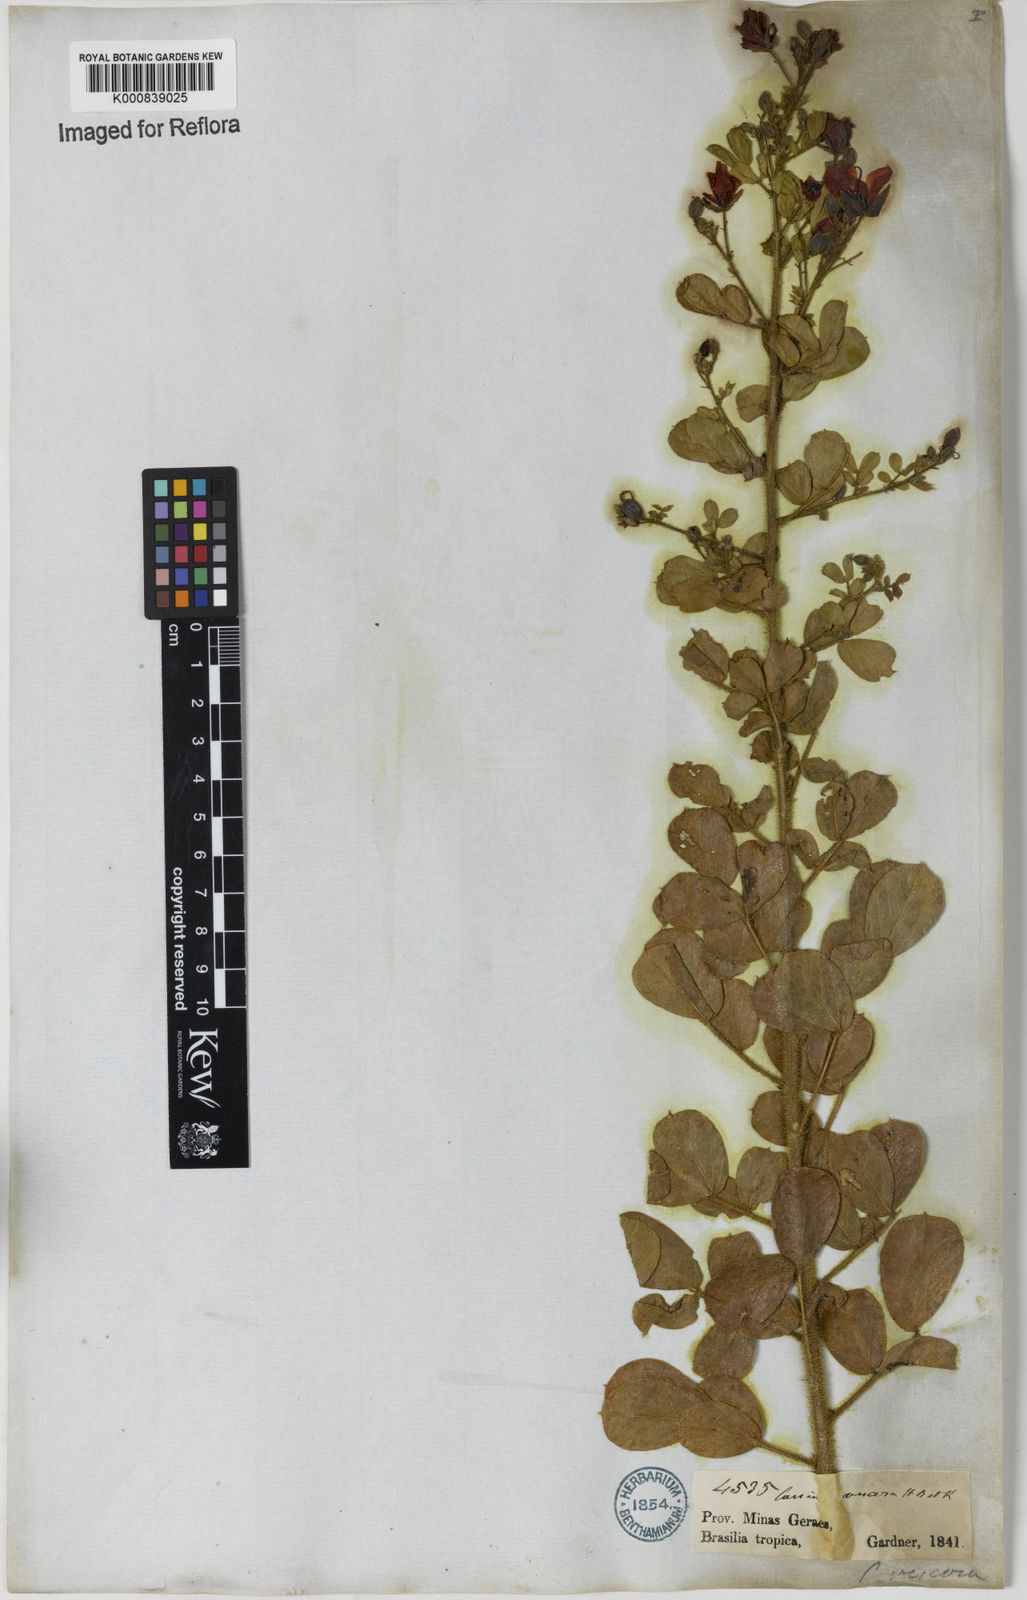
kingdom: Plantae
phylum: Tracheophyta
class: Magnoliopsida
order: Fabales
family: Fabaceae
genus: Chamaecrista
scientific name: Chamaecrista viscosa
